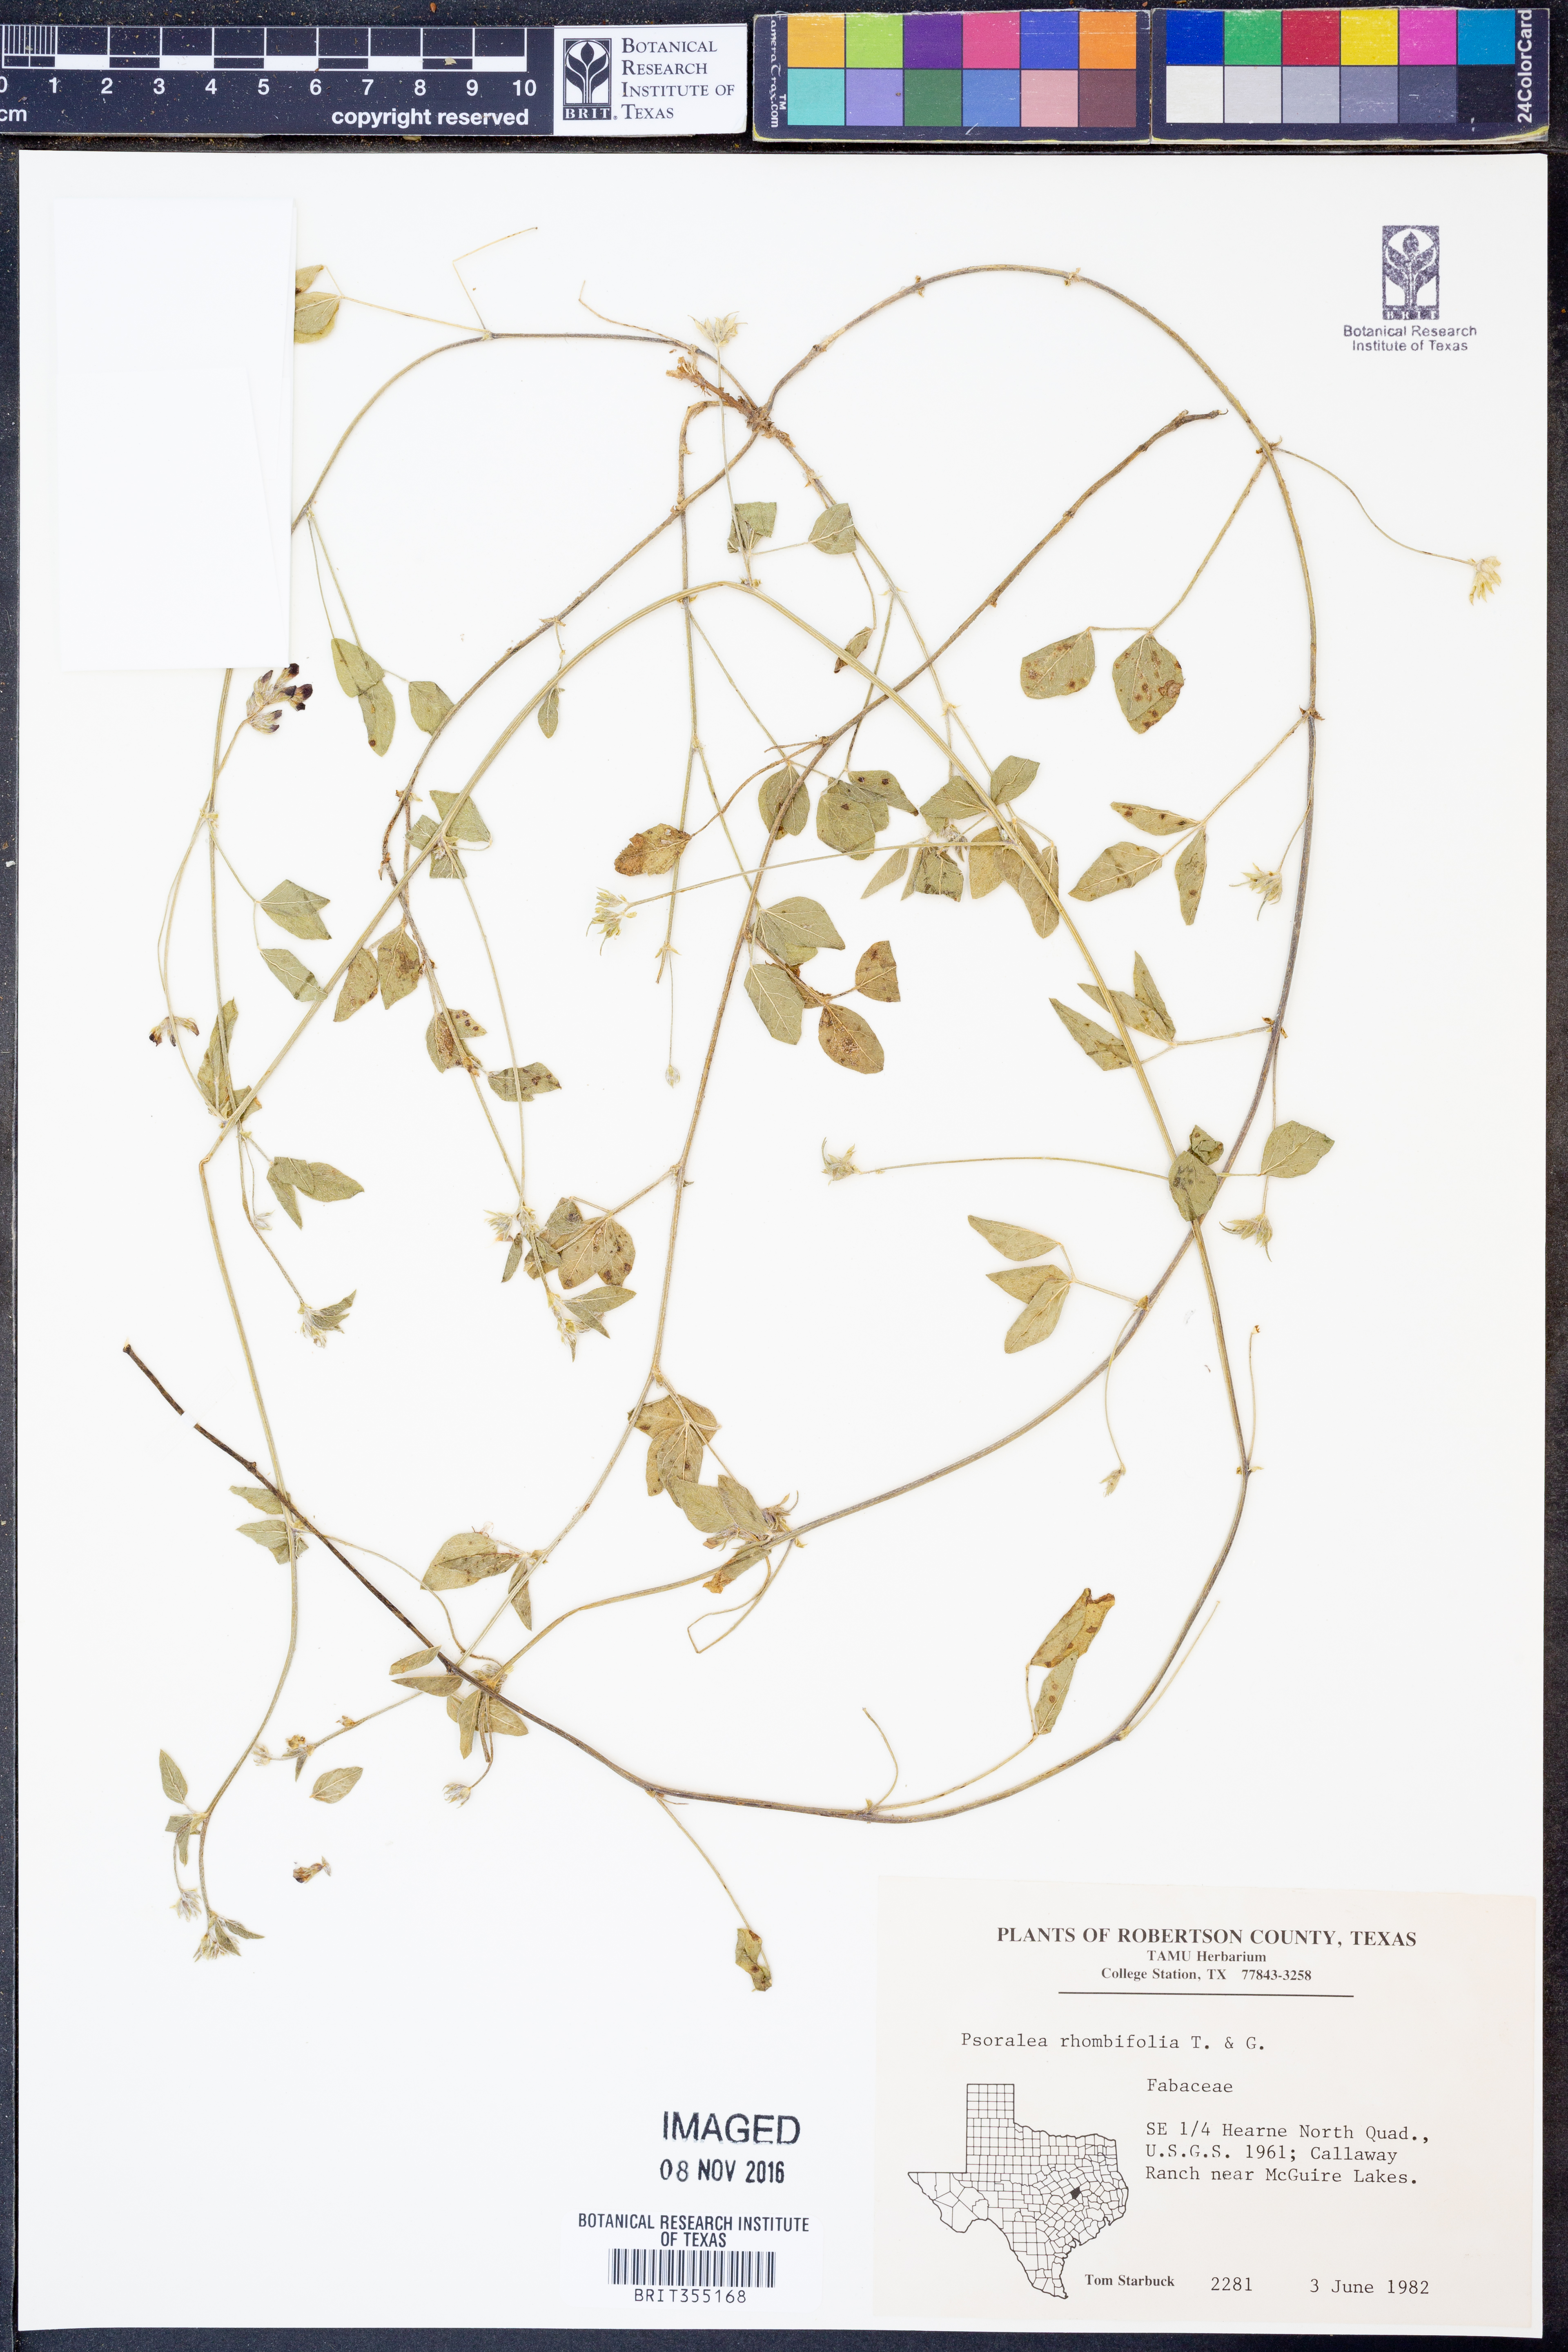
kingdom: Plantae
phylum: Tracheophyta
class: Magnoliopsida
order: Fabales
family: Fabaceae
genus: Pediomelum
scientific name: Pediomelum rhombifolium
